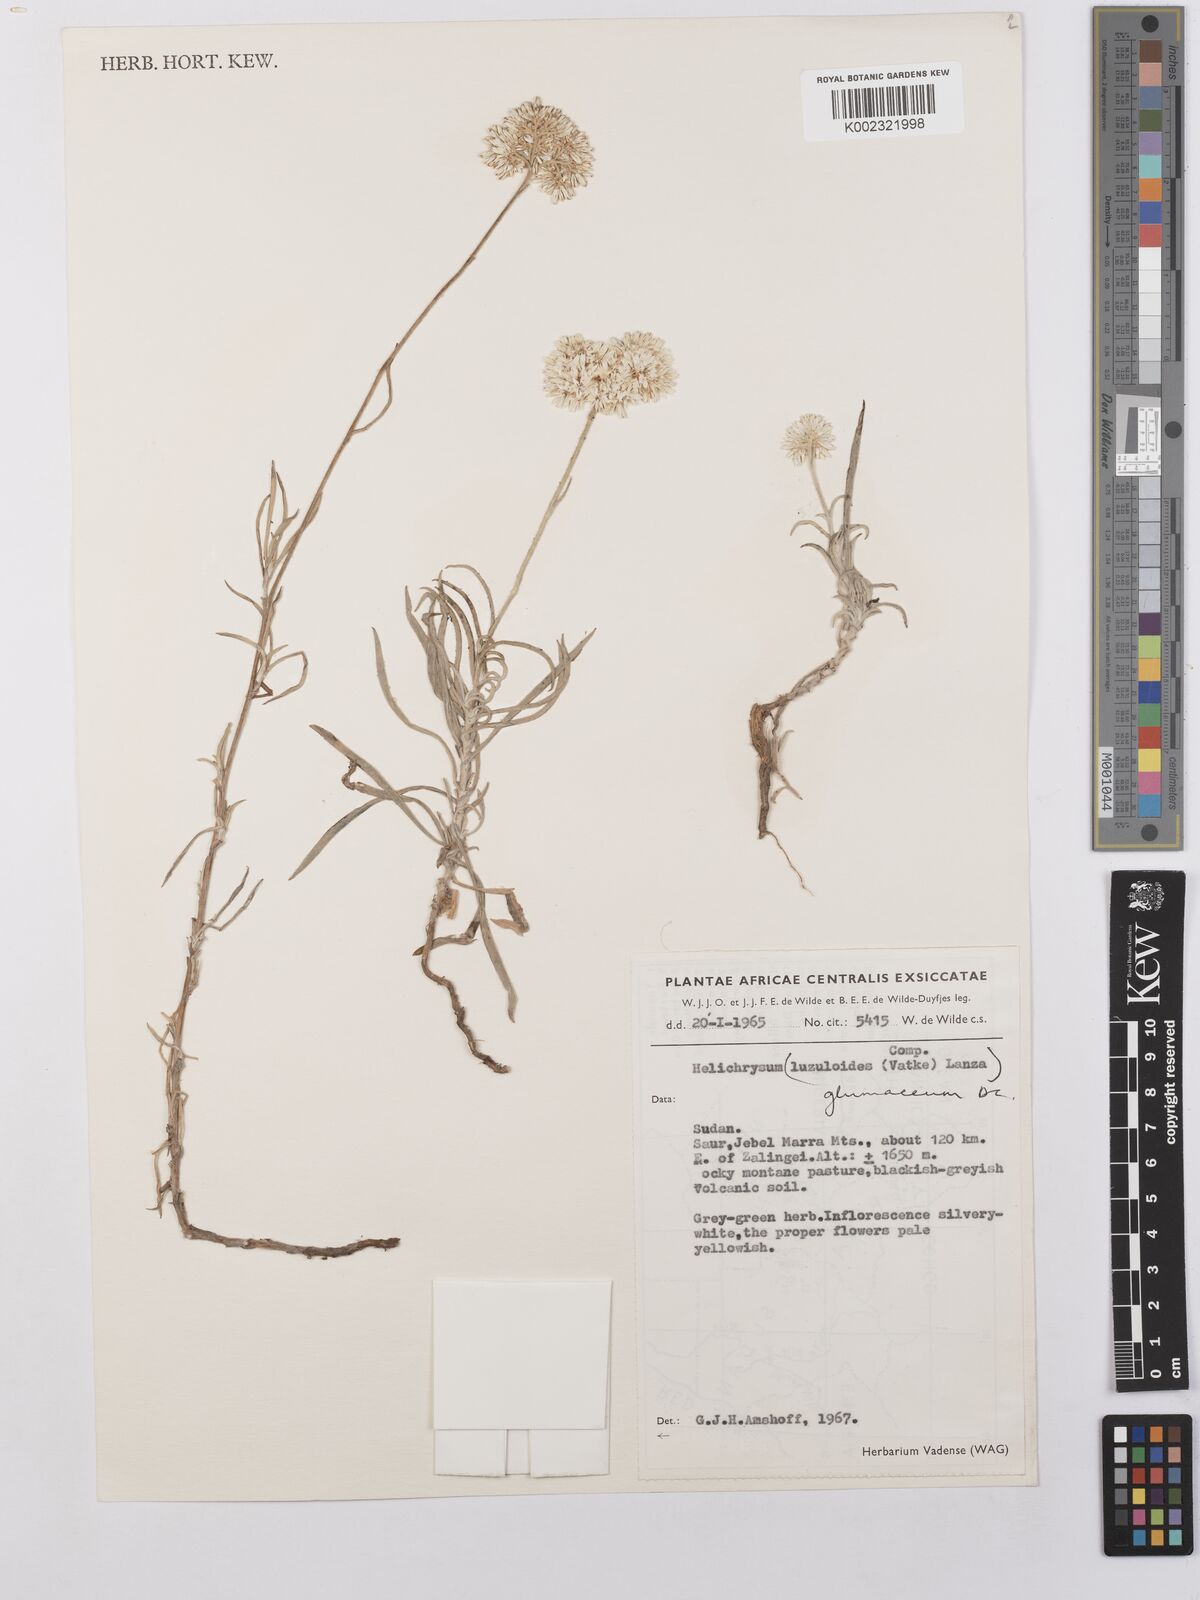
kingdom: Plantae
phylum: Tracheophyta
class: Magnoliopsida
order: Asterales
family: Asteraceae
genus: Helichrysum
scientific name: Helichrysum glumaceum
